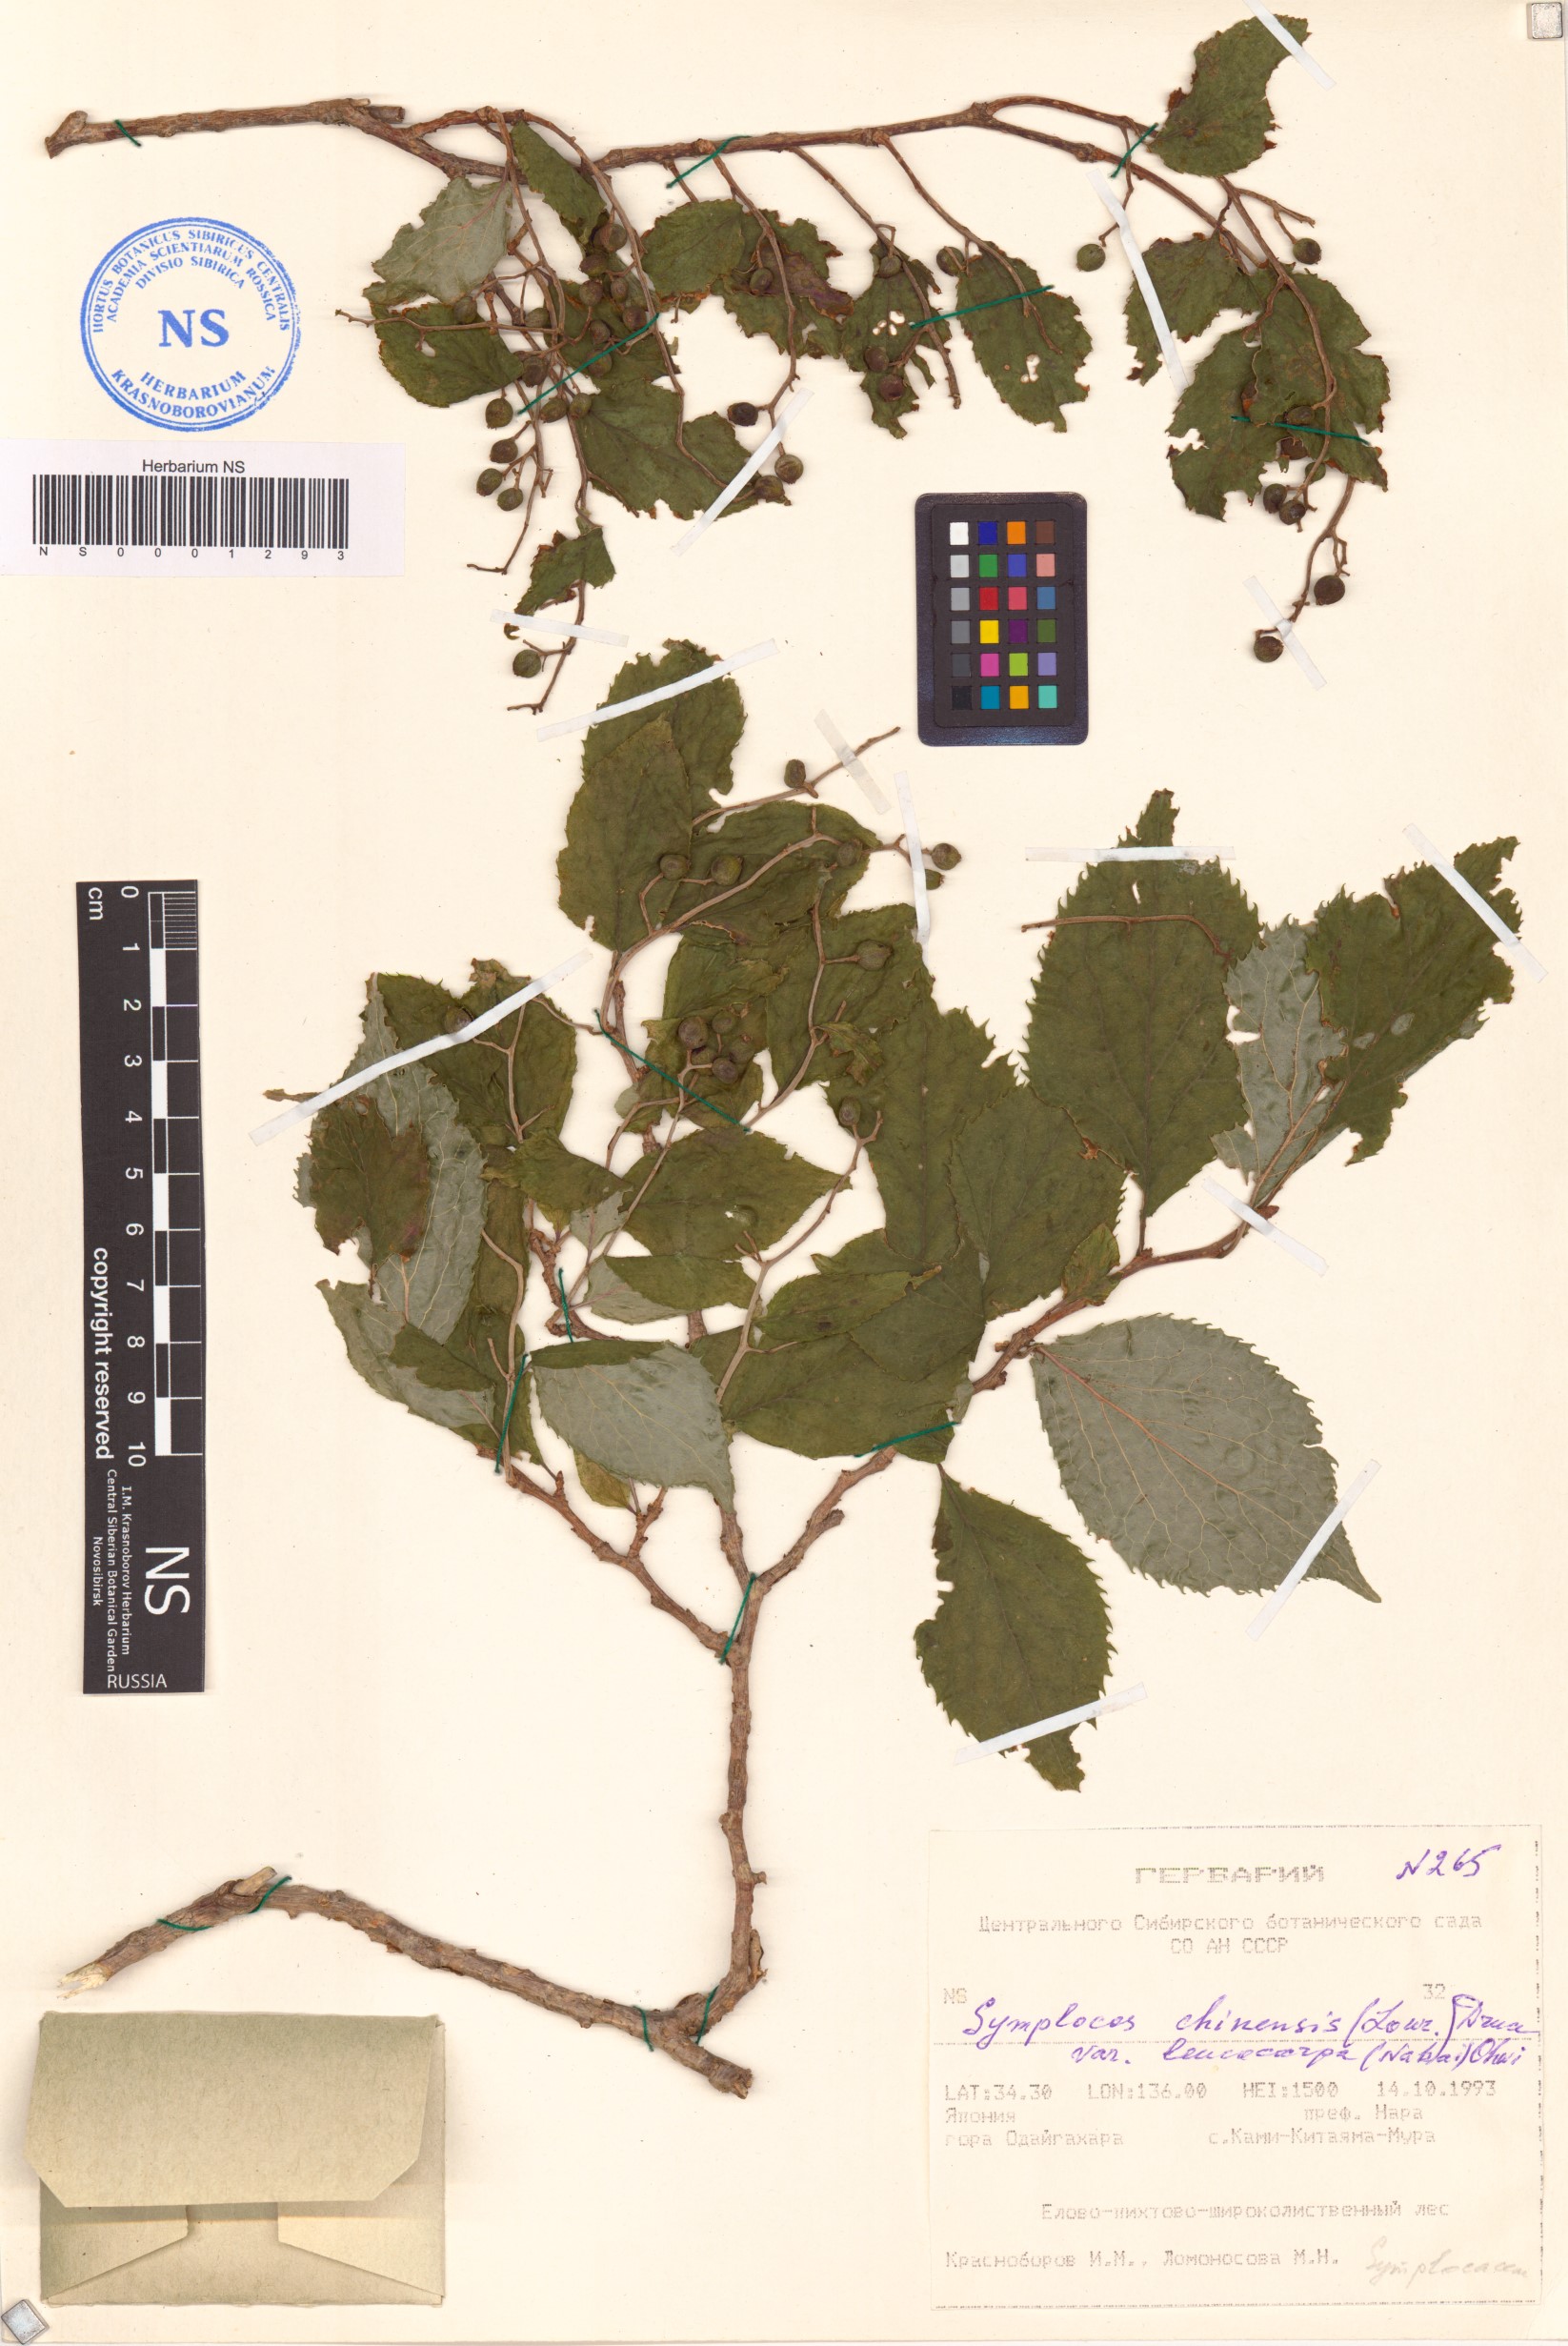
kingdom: Plantae
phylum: Tracheophyta
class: Magnoliopsida
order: Ericales
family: Symplocaceae
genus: Symplocos
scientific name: Symplocos sawafutagi
